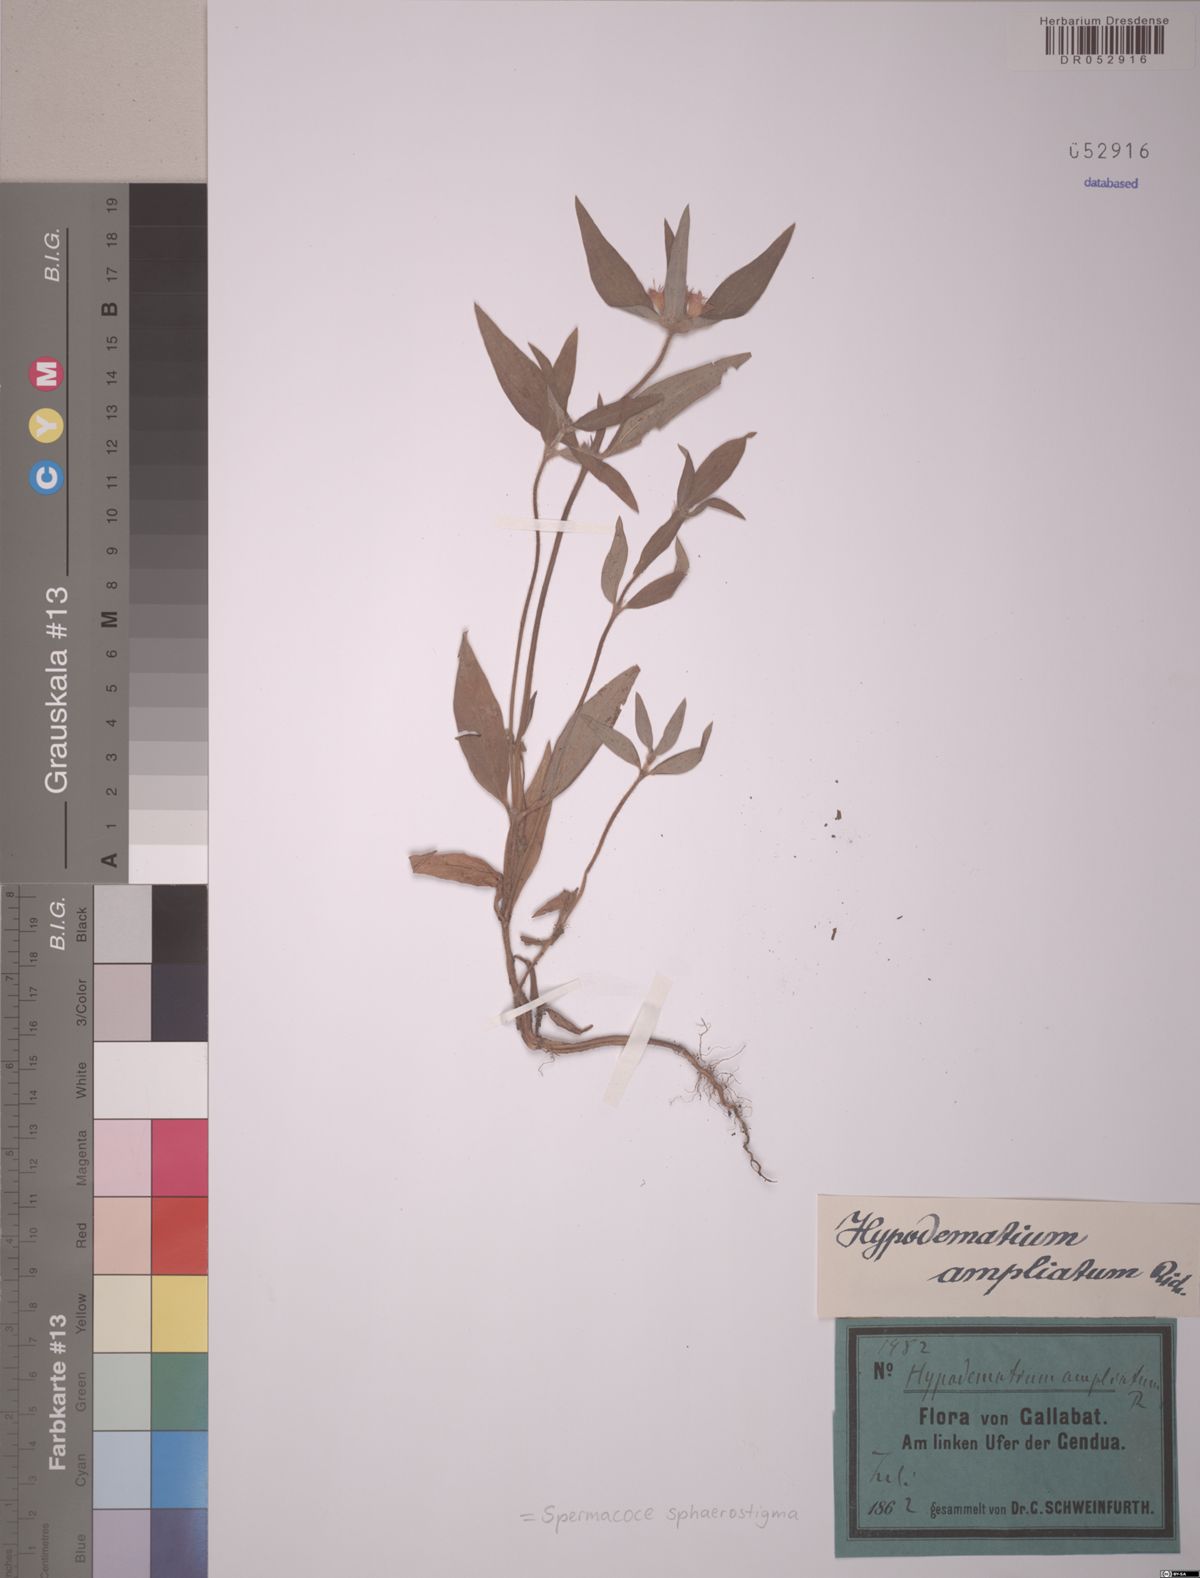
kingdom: Plantae
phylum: Tracheophyta
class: Magnoliopsida
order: Gentianales
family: Rubiaceae
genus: Spermacoce
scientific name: Spermacoce sphaerostigma
